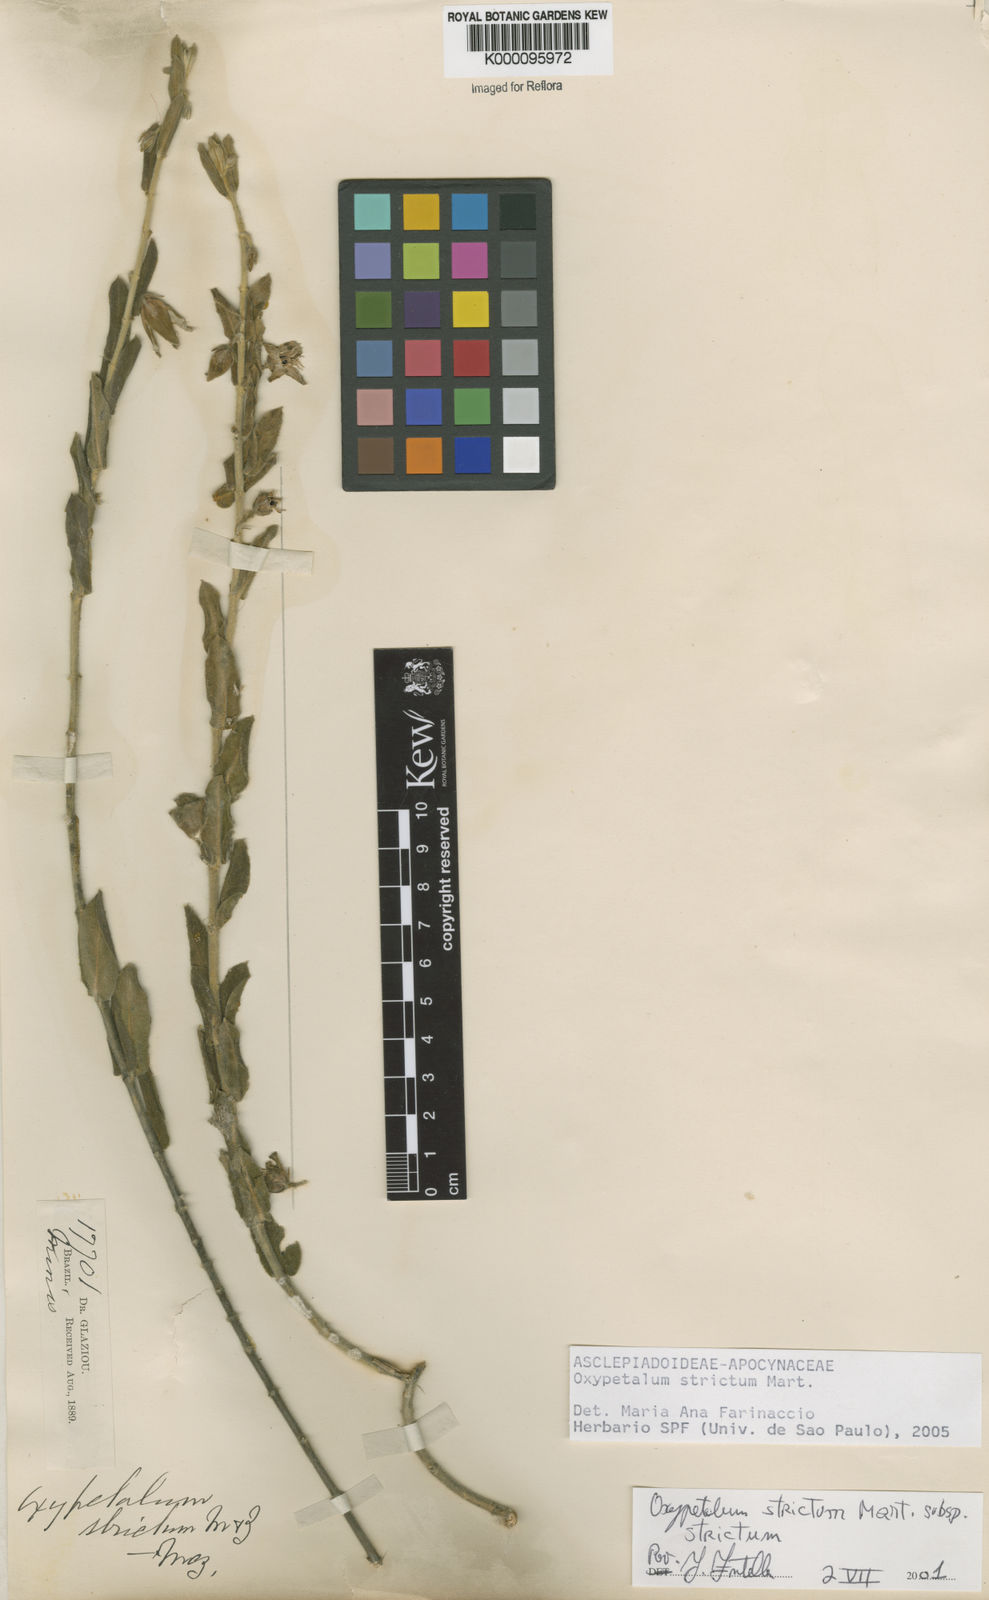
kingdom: Plantae
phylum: Tracheophyta
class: Magnoliopsida
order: Gentianales
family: Apocynaceae
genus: Oxypetalum
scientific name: Oxypetalum strictum
